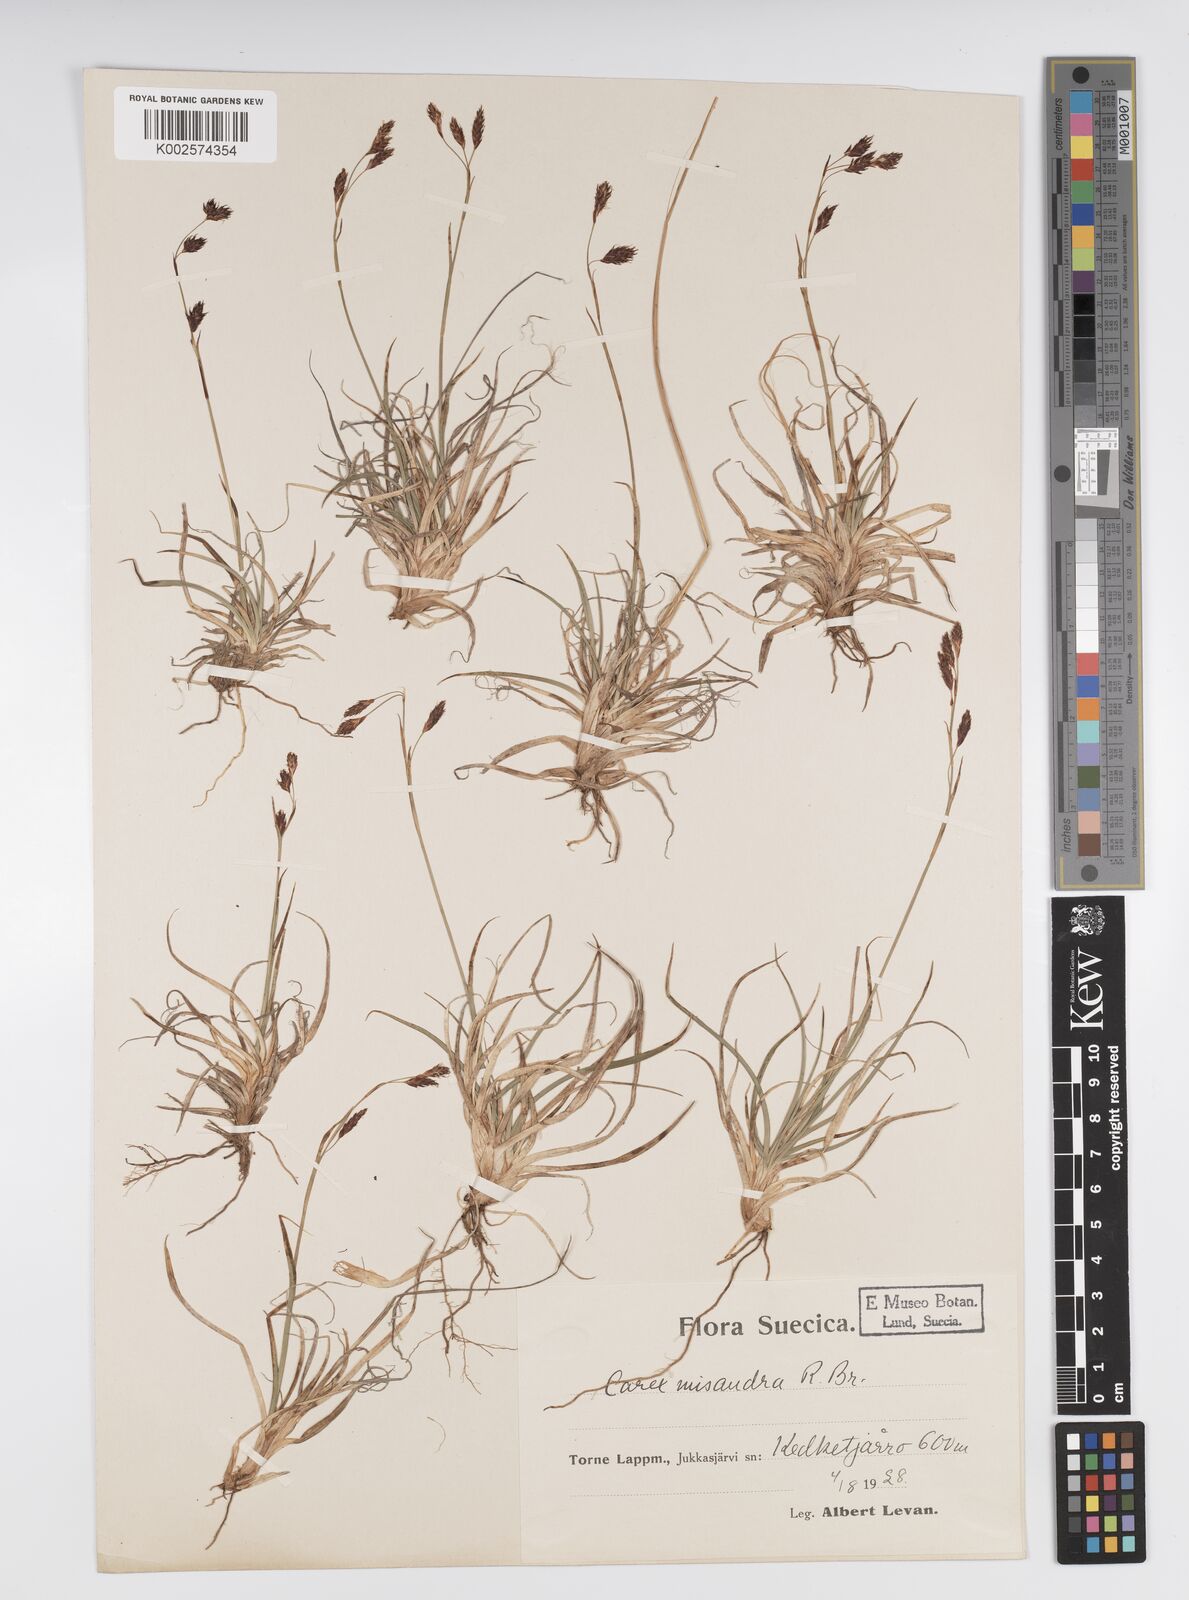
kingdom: Plantae
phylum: Tracheophyta
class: Liliopsida
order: Poales
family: Cyperaceae
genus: Carex
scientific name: Carex fuliginosa
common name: Few-flowered sedge
